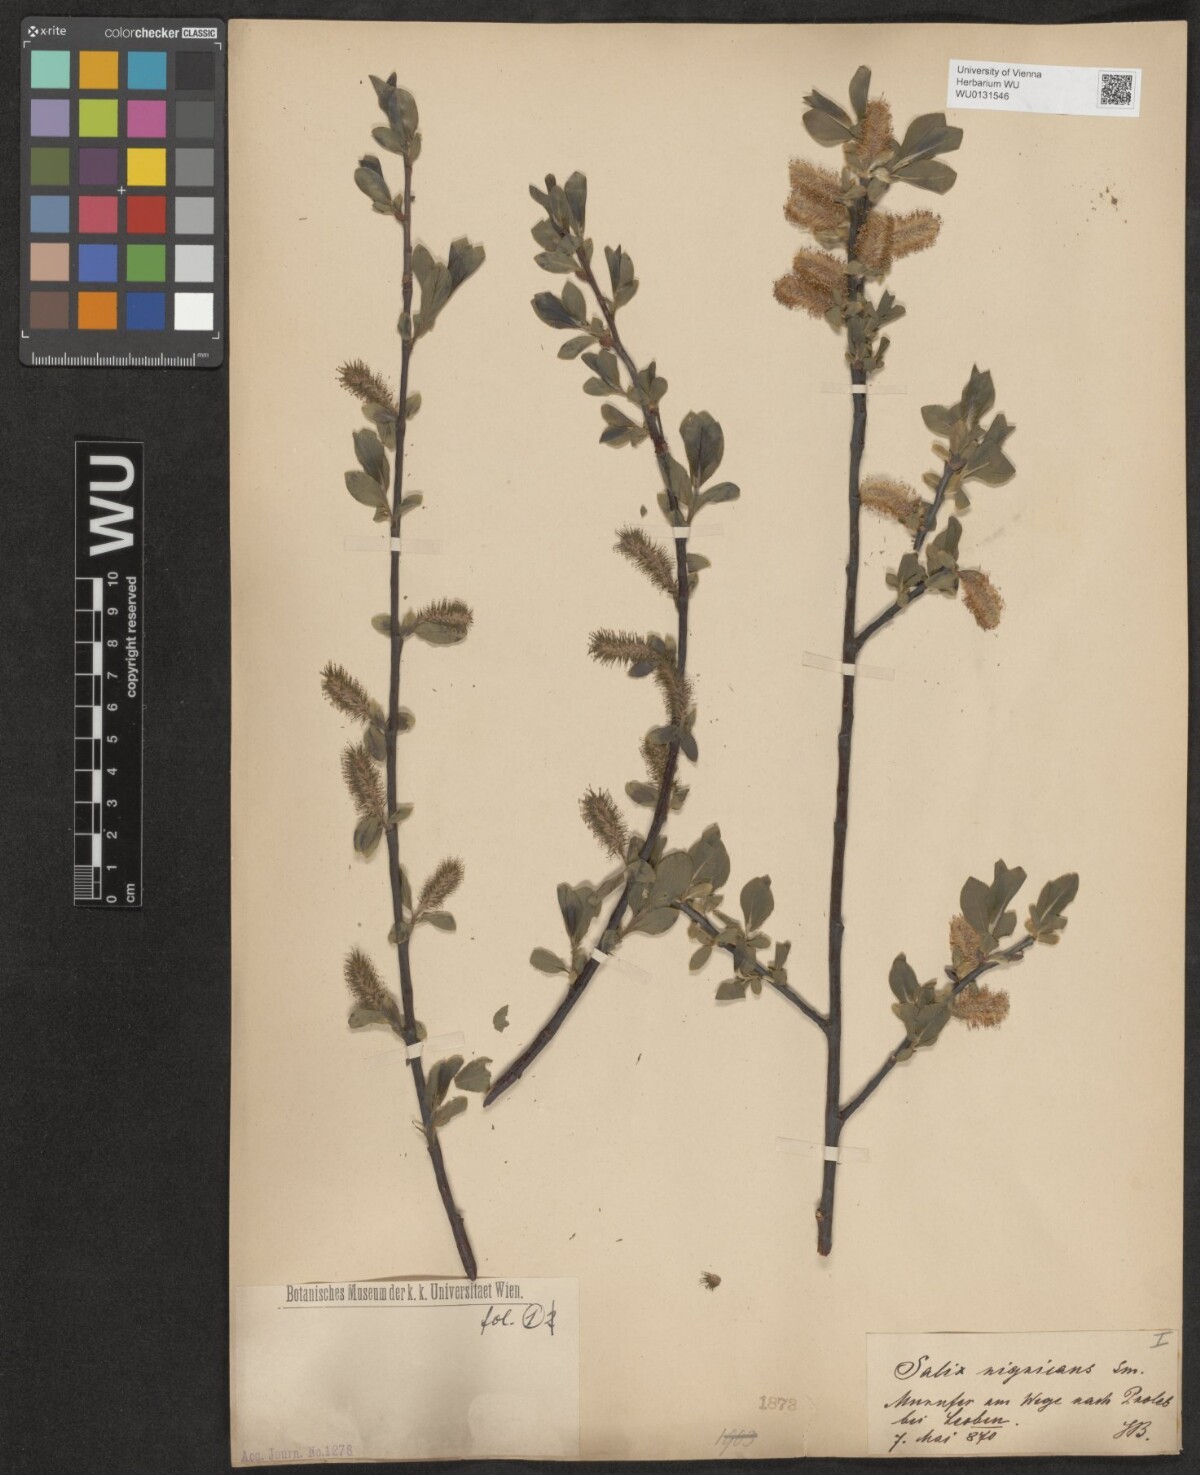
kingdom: Plantae
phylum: Tracheophyta
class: Magnoliopsida
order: Malpighiales
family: Salicaceae
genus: Salix
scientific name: Salix myrsinifolia
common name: Dark-leaved willow
